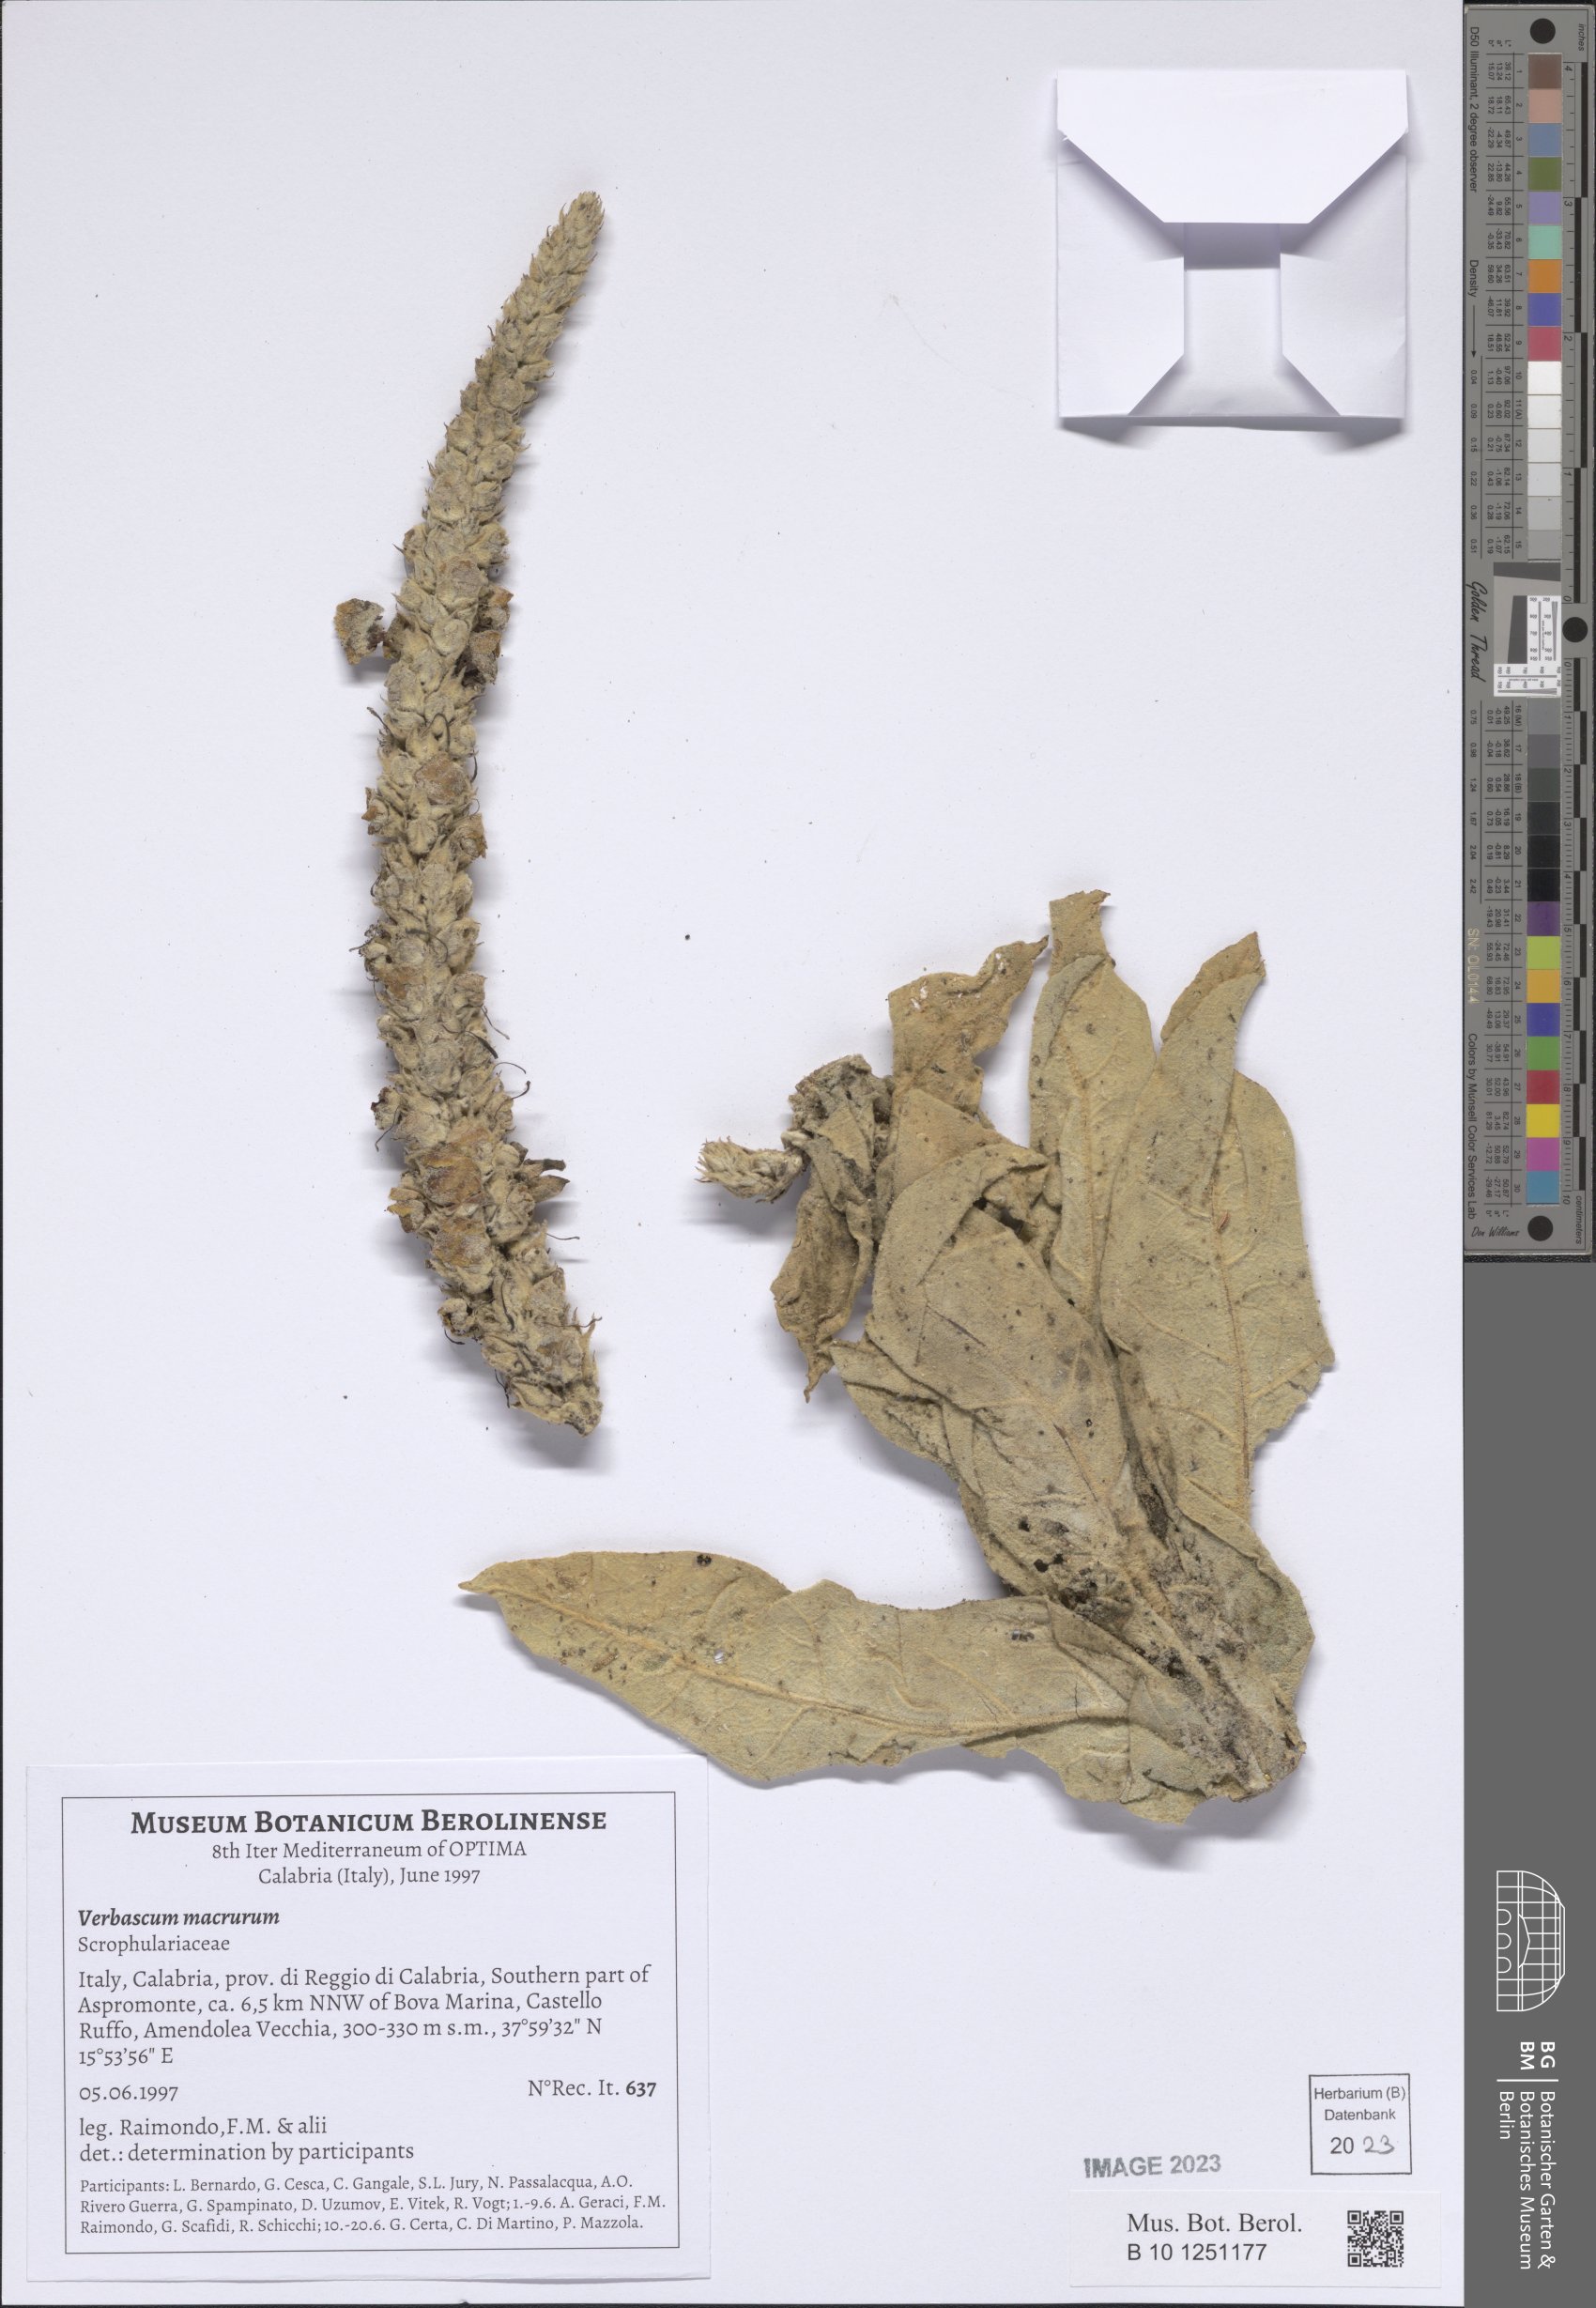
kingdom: Plantae
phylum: Tracheophyta
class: Magnoliopsida
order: Lamiales
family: Scrophulariaceae
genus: Verbascum
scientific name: Verbascum macrurum
